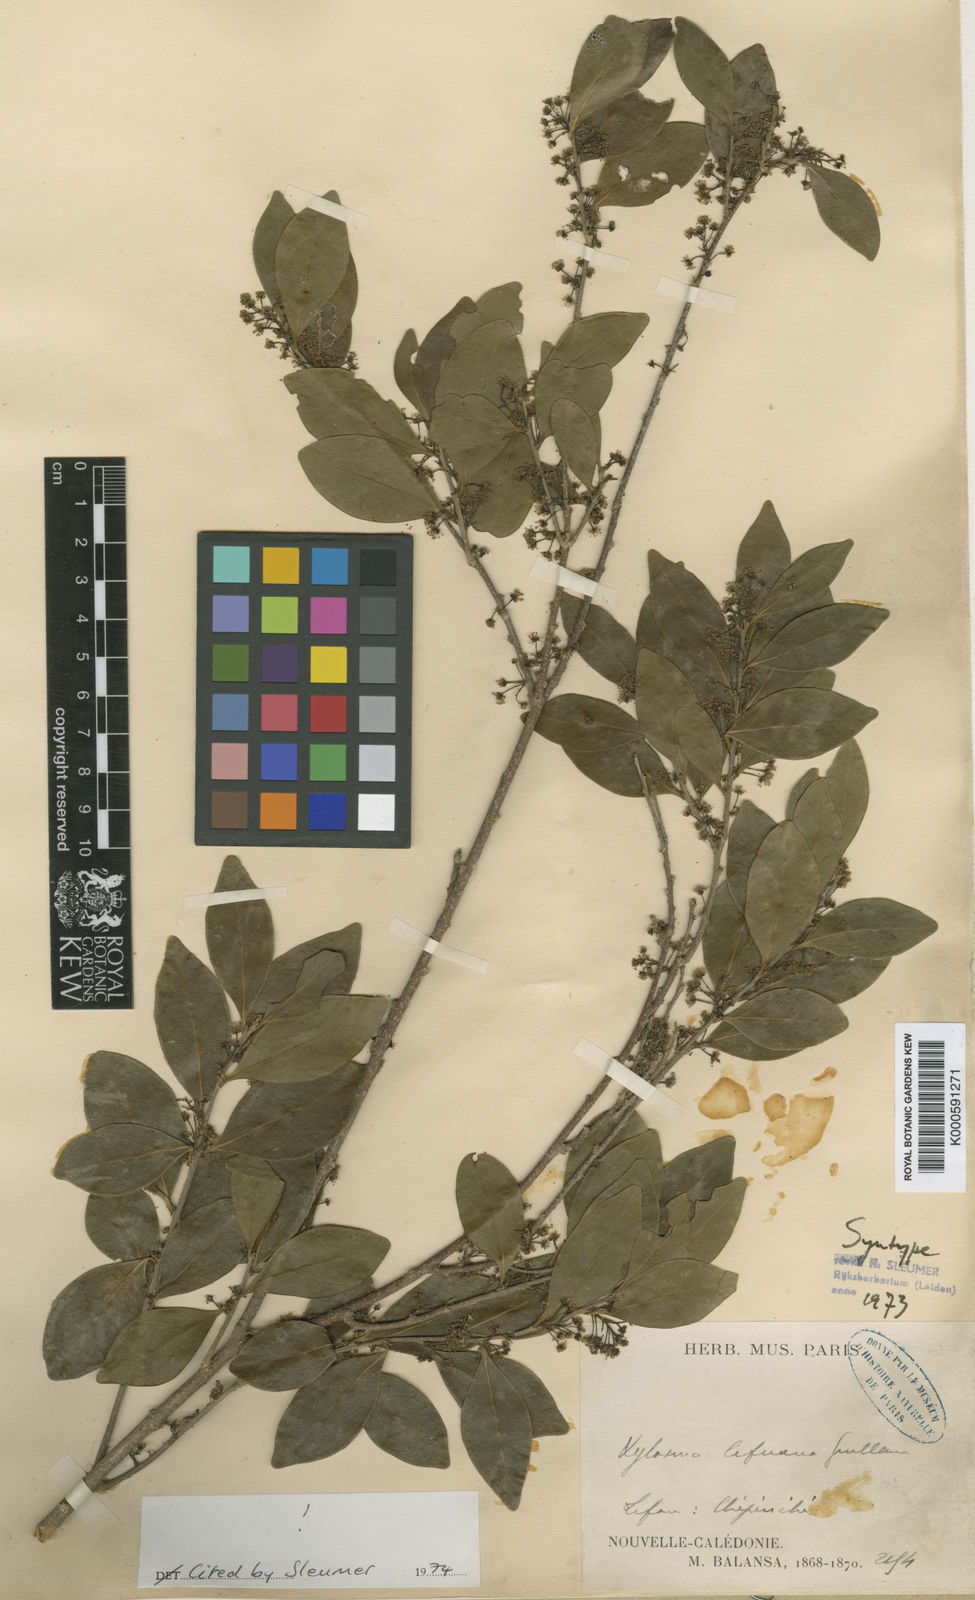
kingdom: Plantae
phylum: Tracheophyta
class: Magnoliopsida
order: Malpighiales
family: Salicaceae
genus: Xylosma
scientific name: Xylosma lifuana
